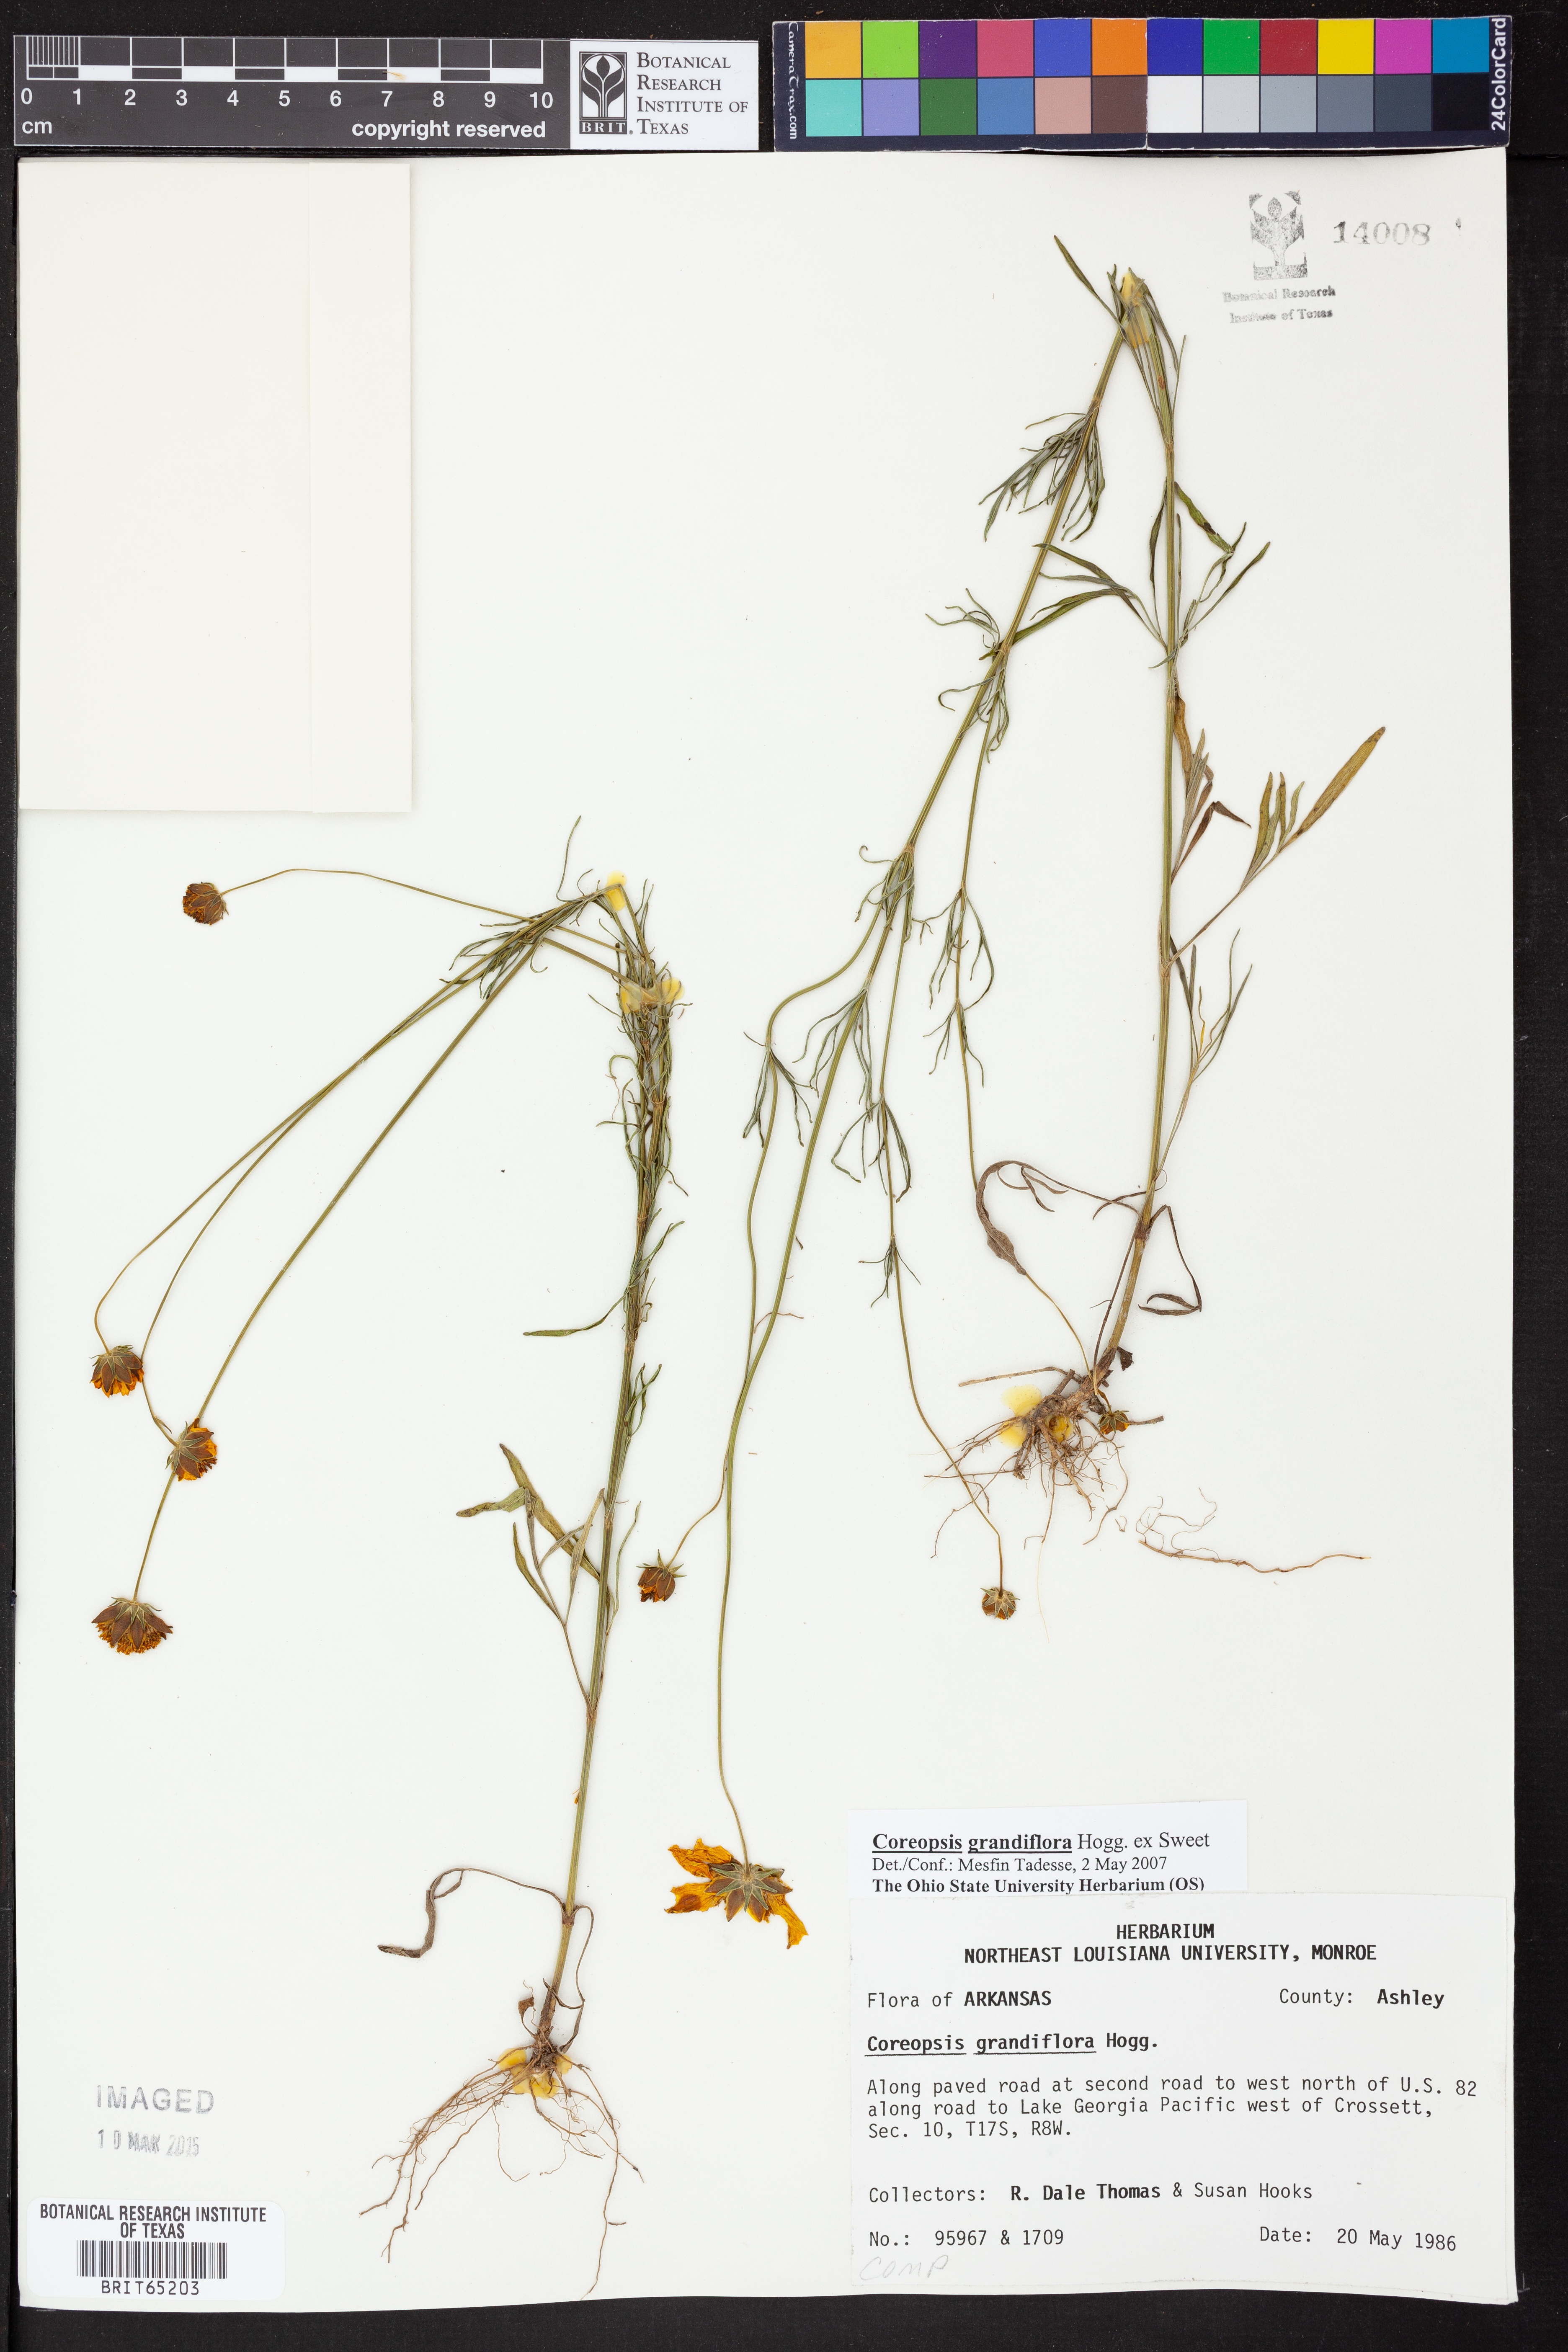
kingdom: Plantae
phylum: Tracheophyta
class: Magnoliopsida
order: Asterales
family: Asteraceae
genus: Coreopsis
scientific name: Coreopsis grandiflora
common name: Large-flowered tickseed
